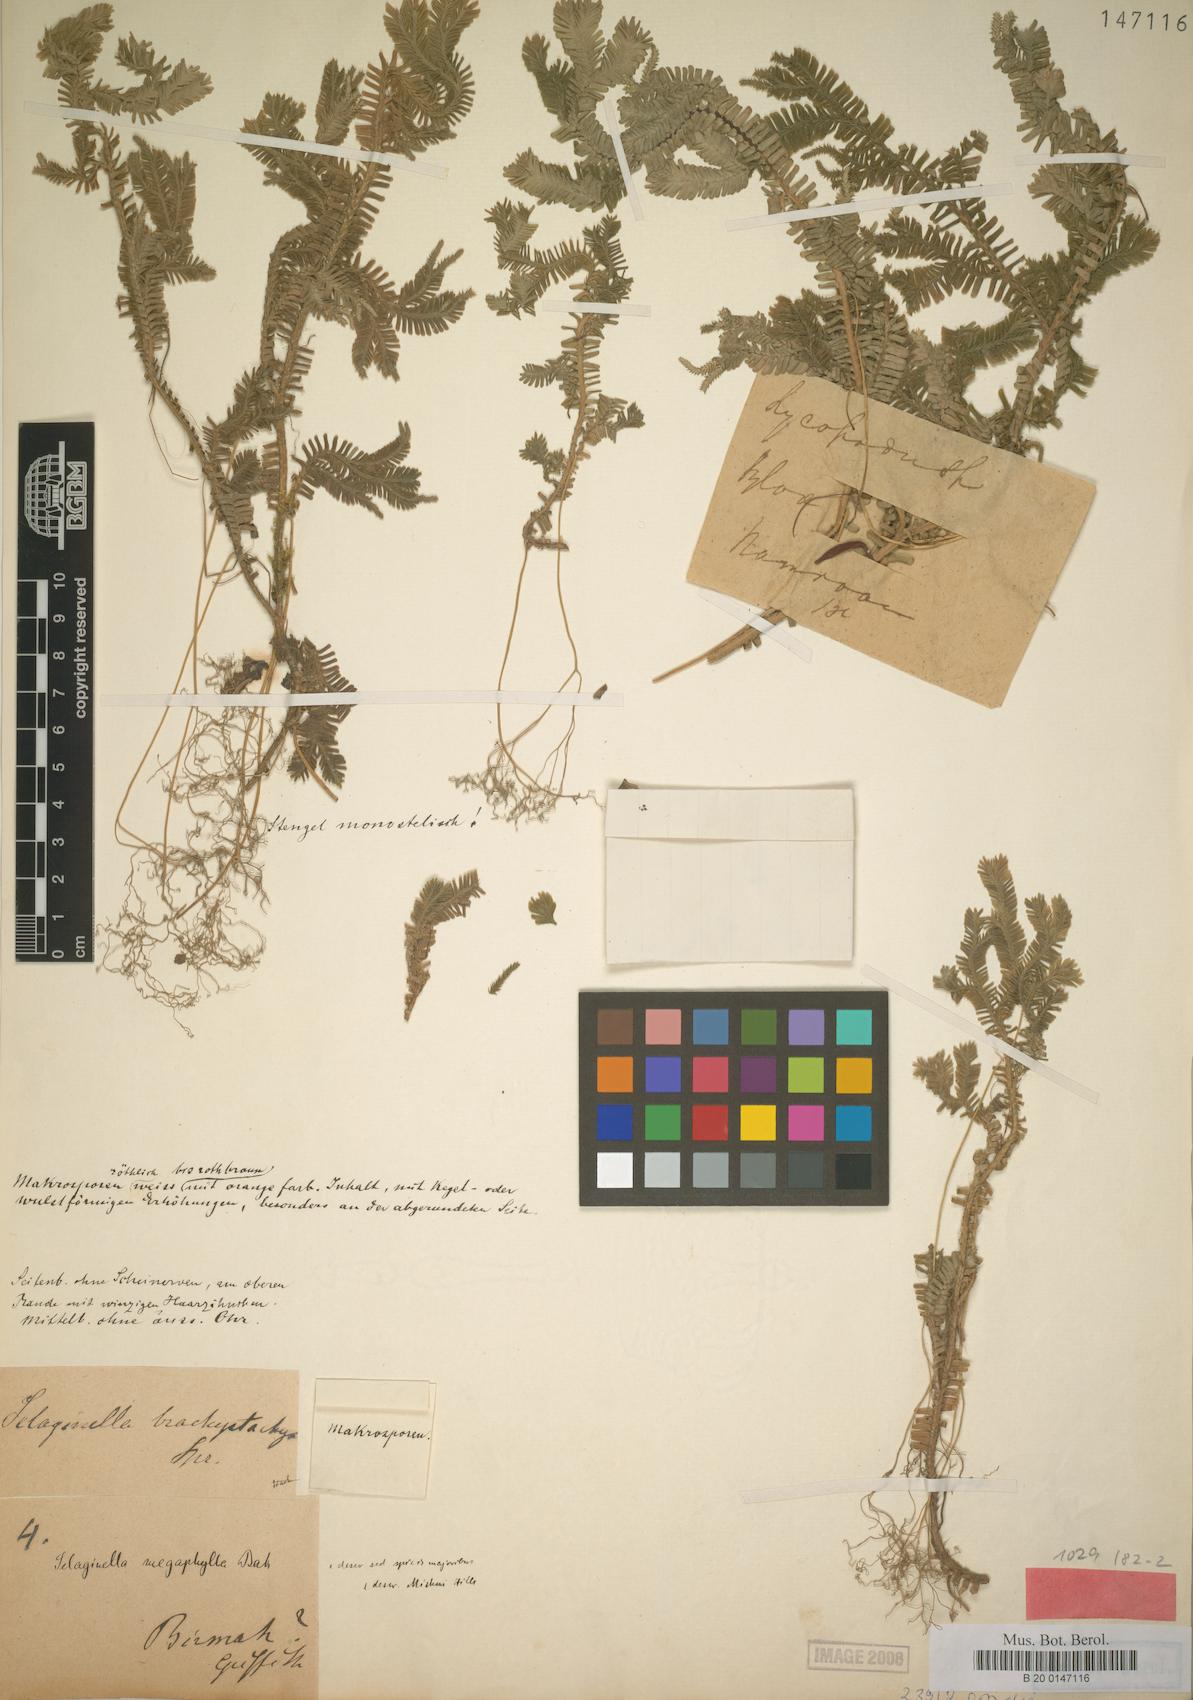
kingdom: Plantae
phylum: Tracheophyta
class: Lycopodiopsida
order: Selaginellales
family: Selaginellaceae
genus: Selaginella
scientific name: Selaginella megaphylla
